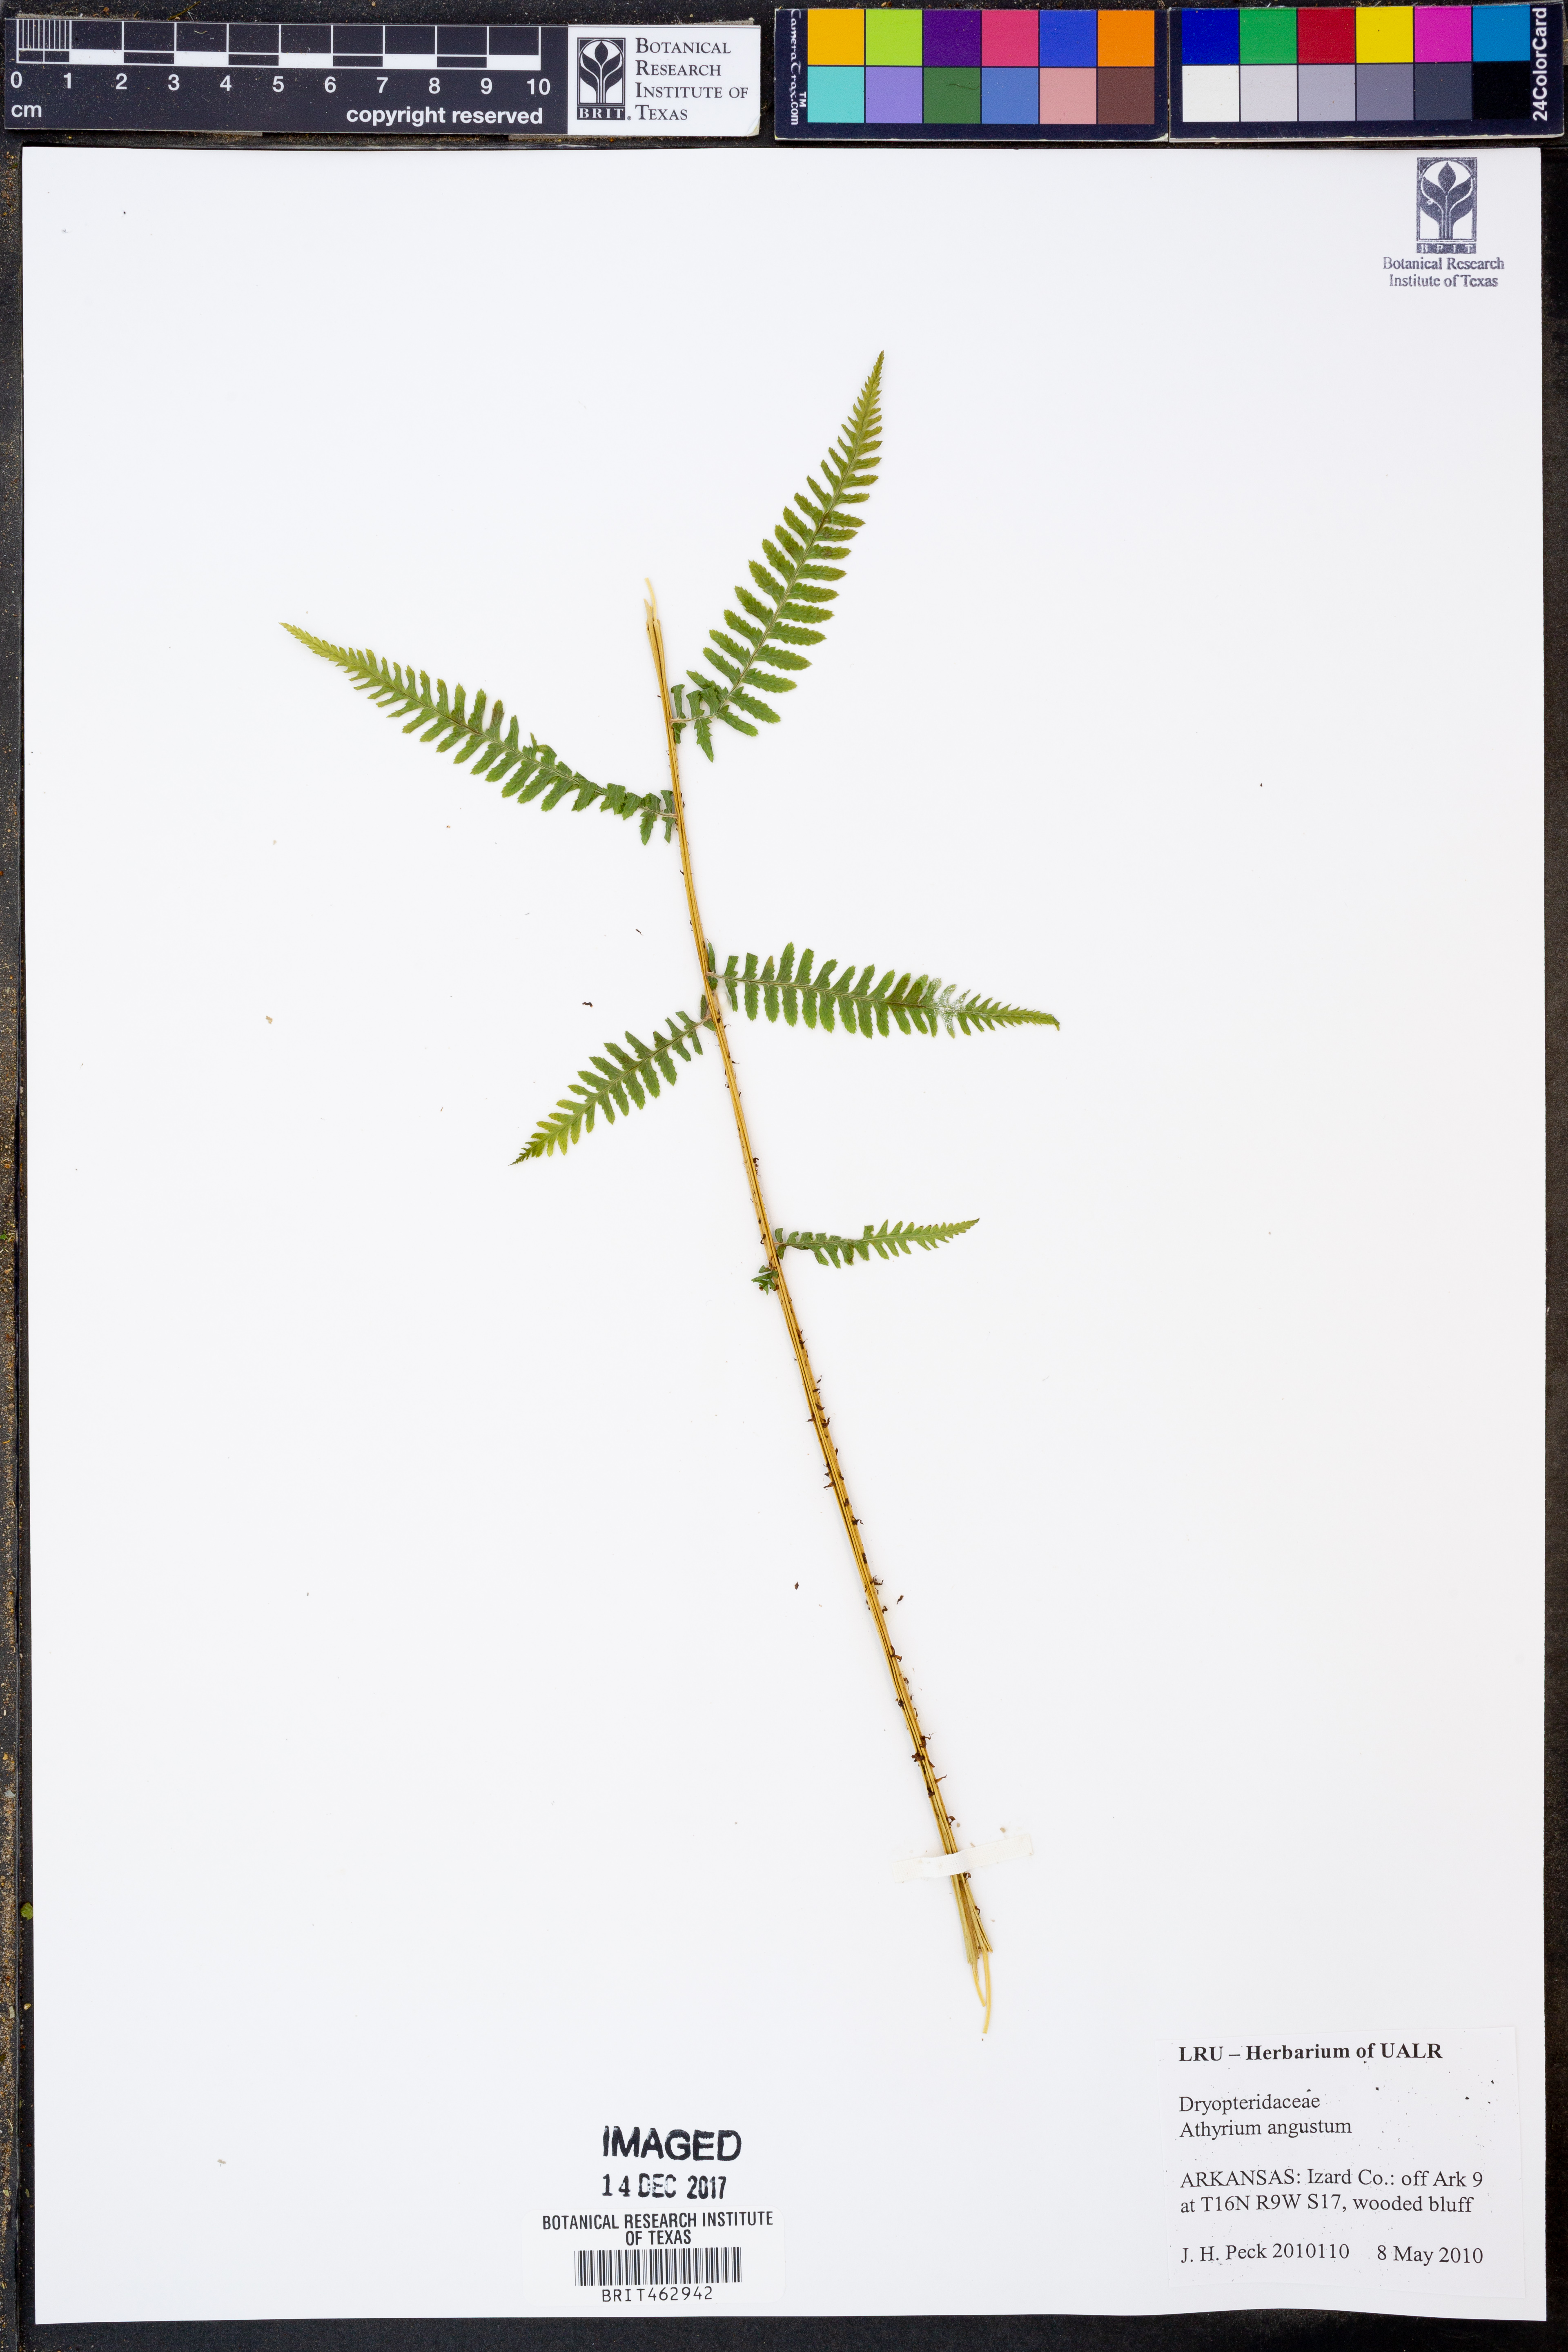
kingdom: Plantae
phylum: Tracheophyta
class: Polypodiopsida
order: Polypodiales
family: Athyriaceae
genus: Athyrium
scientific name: Athyrium angustum
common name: Northern lady fern
